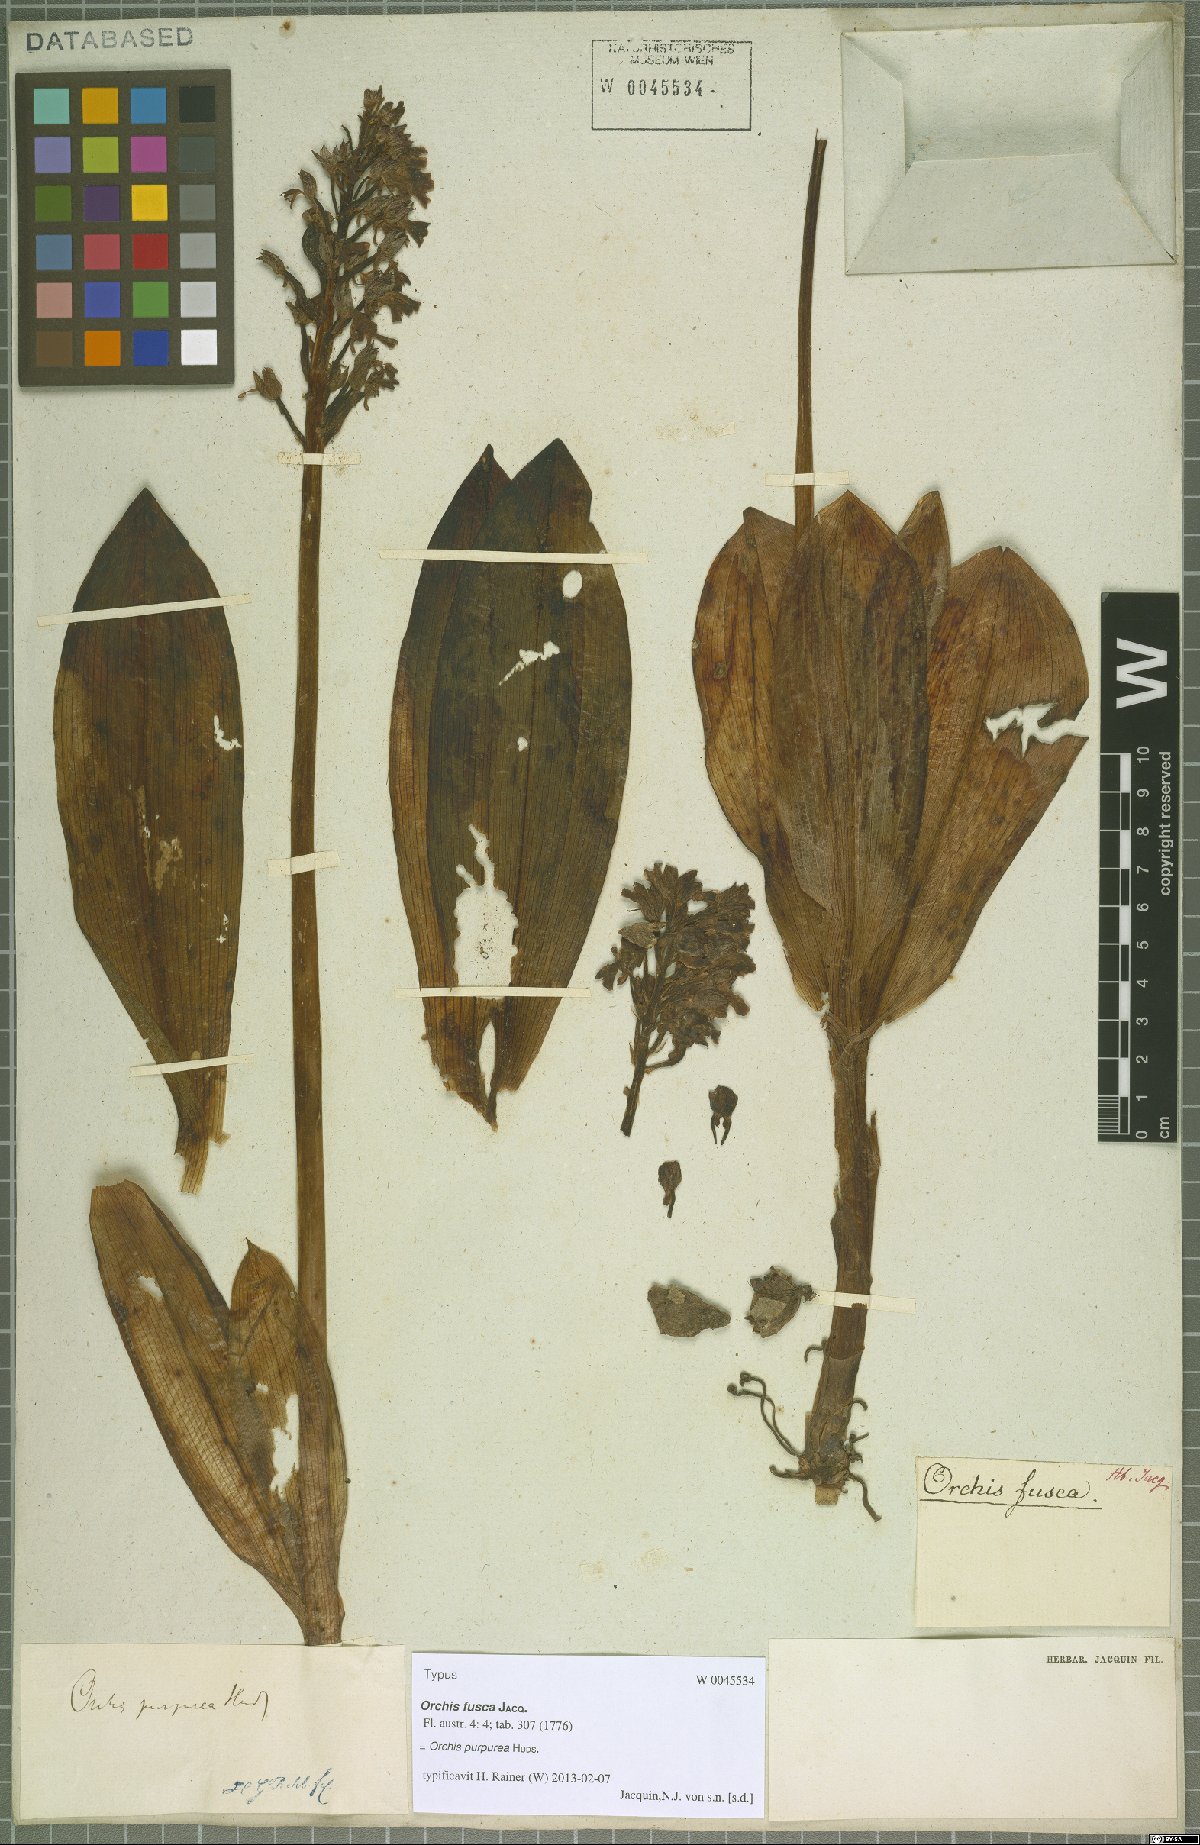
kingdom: Plantae
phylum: Tracheophyta
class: Liliopsida
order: Asparagales
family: Orchidaceae
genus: Orchis
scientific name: Orchis purpurea
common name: Lady orchid
